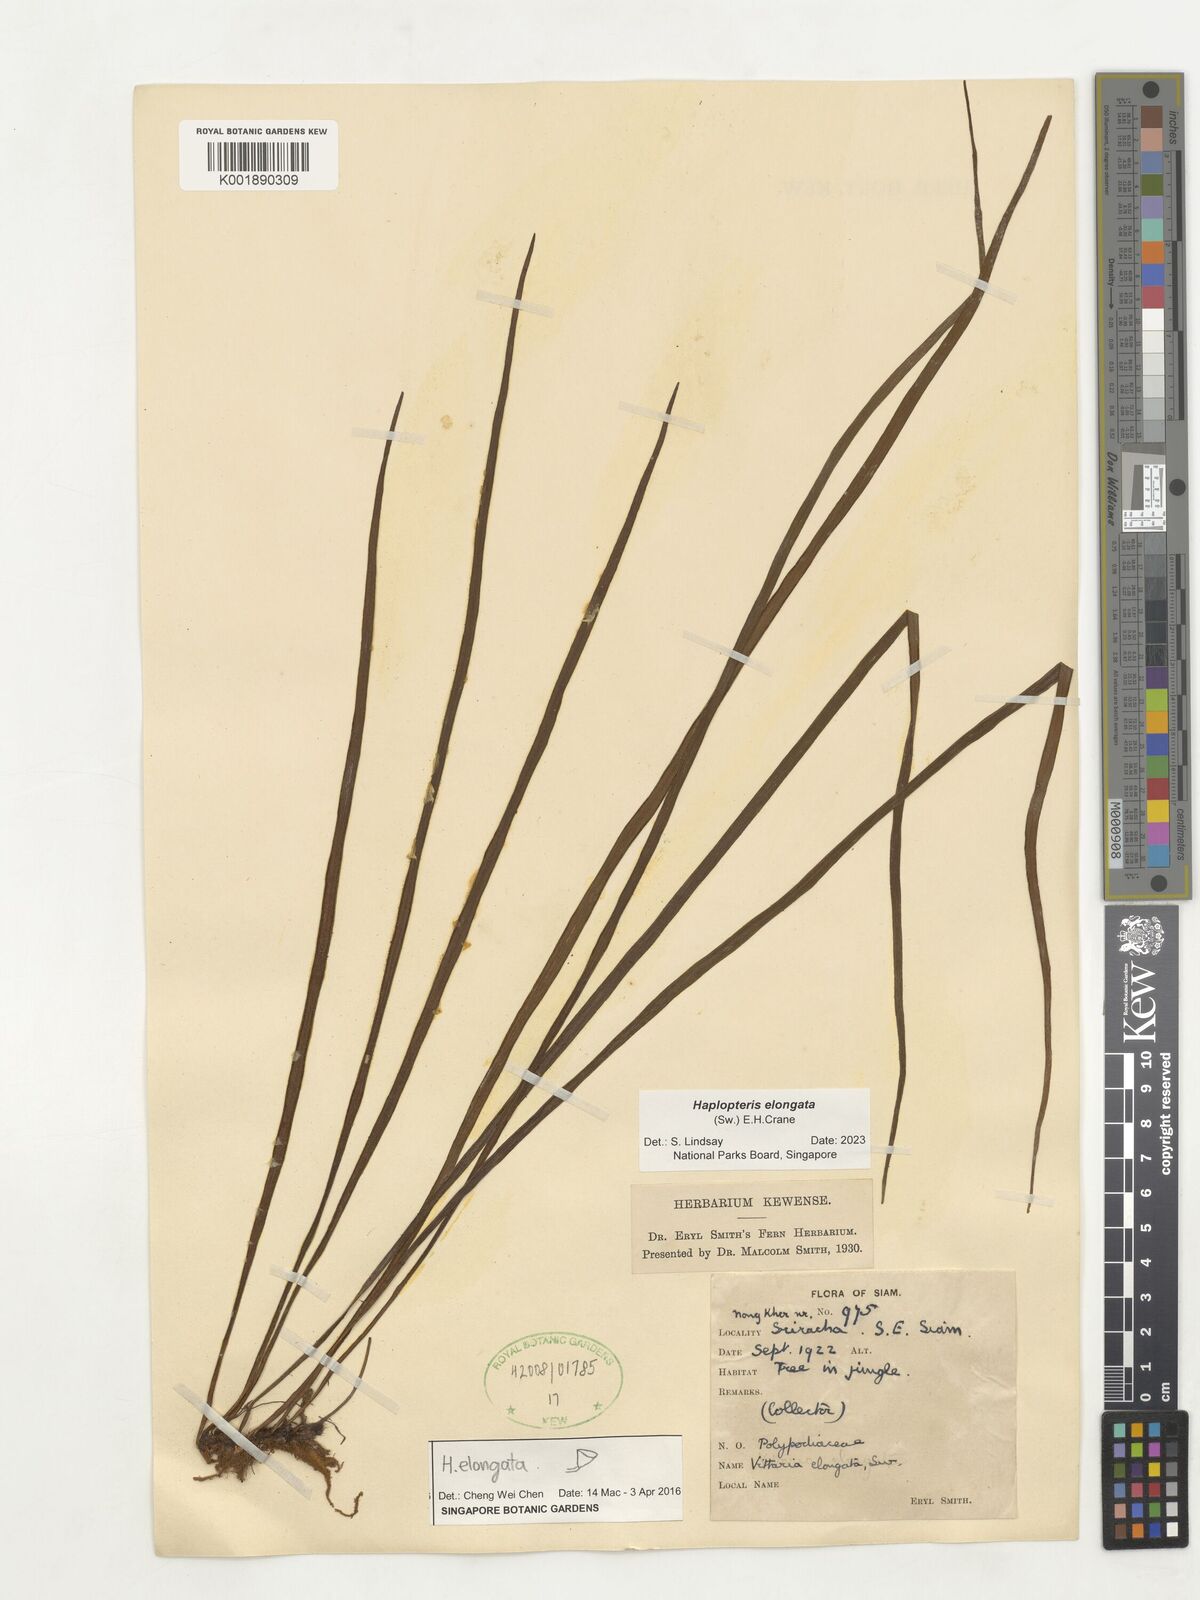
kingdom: Plantae
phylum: Tracheophyta
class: Polypodiopsida
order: Polypodiales
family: Pteridaceae
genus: Haplopteris
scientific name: Haplopteris elongata
